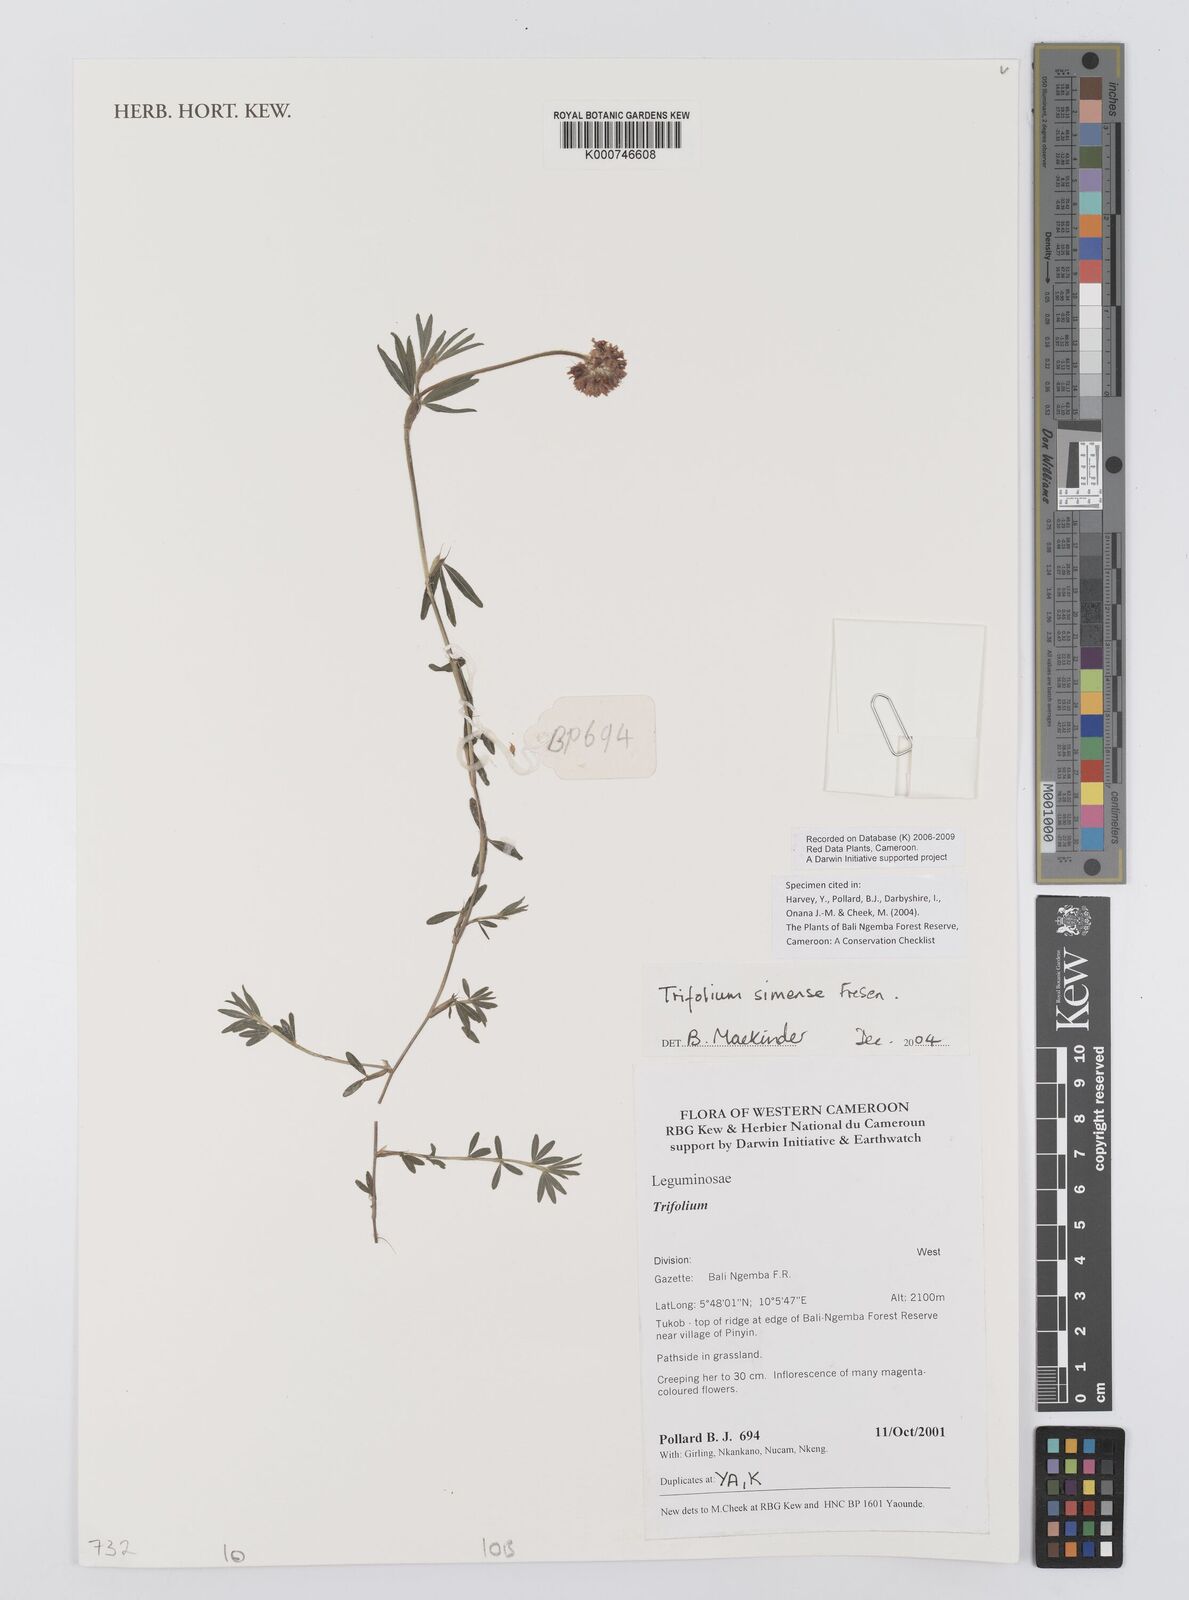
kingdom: Plantae
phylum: Tracheophyta
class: Magnoliopsida
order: Fabales
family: Fabaceae
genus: Trifolium
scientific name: Trifolium simense
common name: Simen clover
